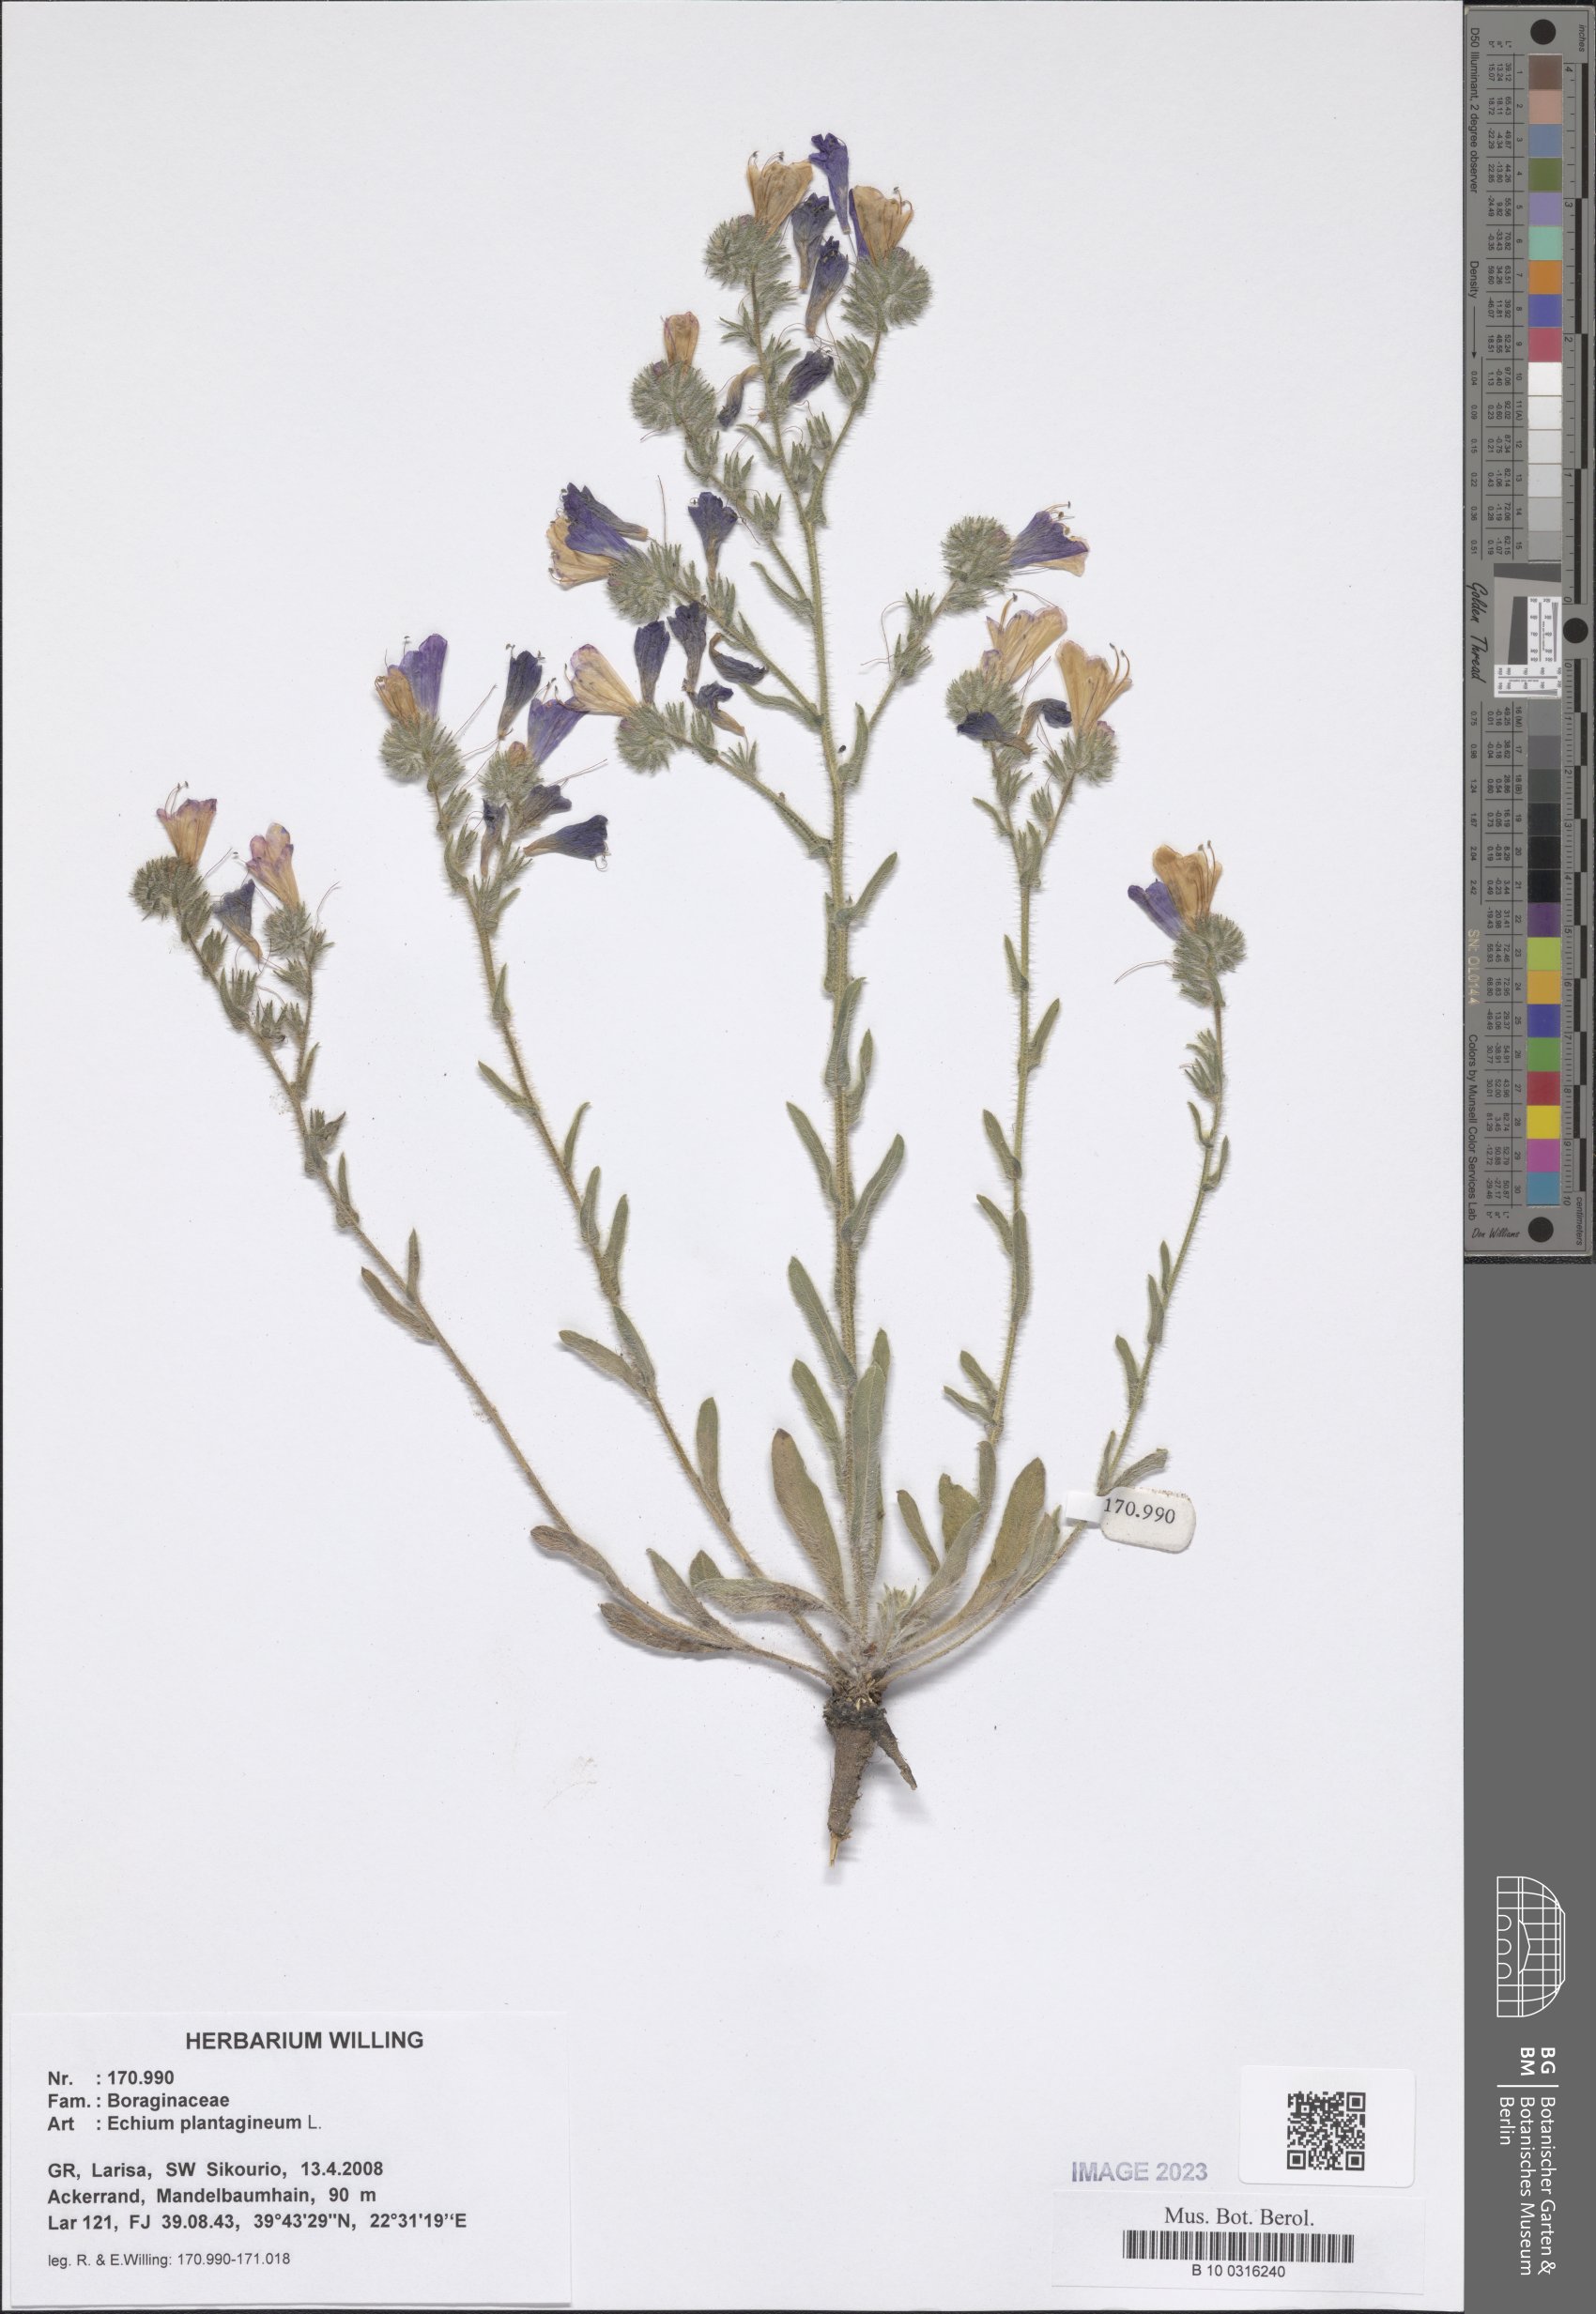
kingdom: Plantae
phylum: Tracheophyta
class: Magnoliopsida
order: Boraginales
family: Boraginaceae
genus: Echium
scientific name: Echium plantagineum
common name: Purple viper's-bugloss
